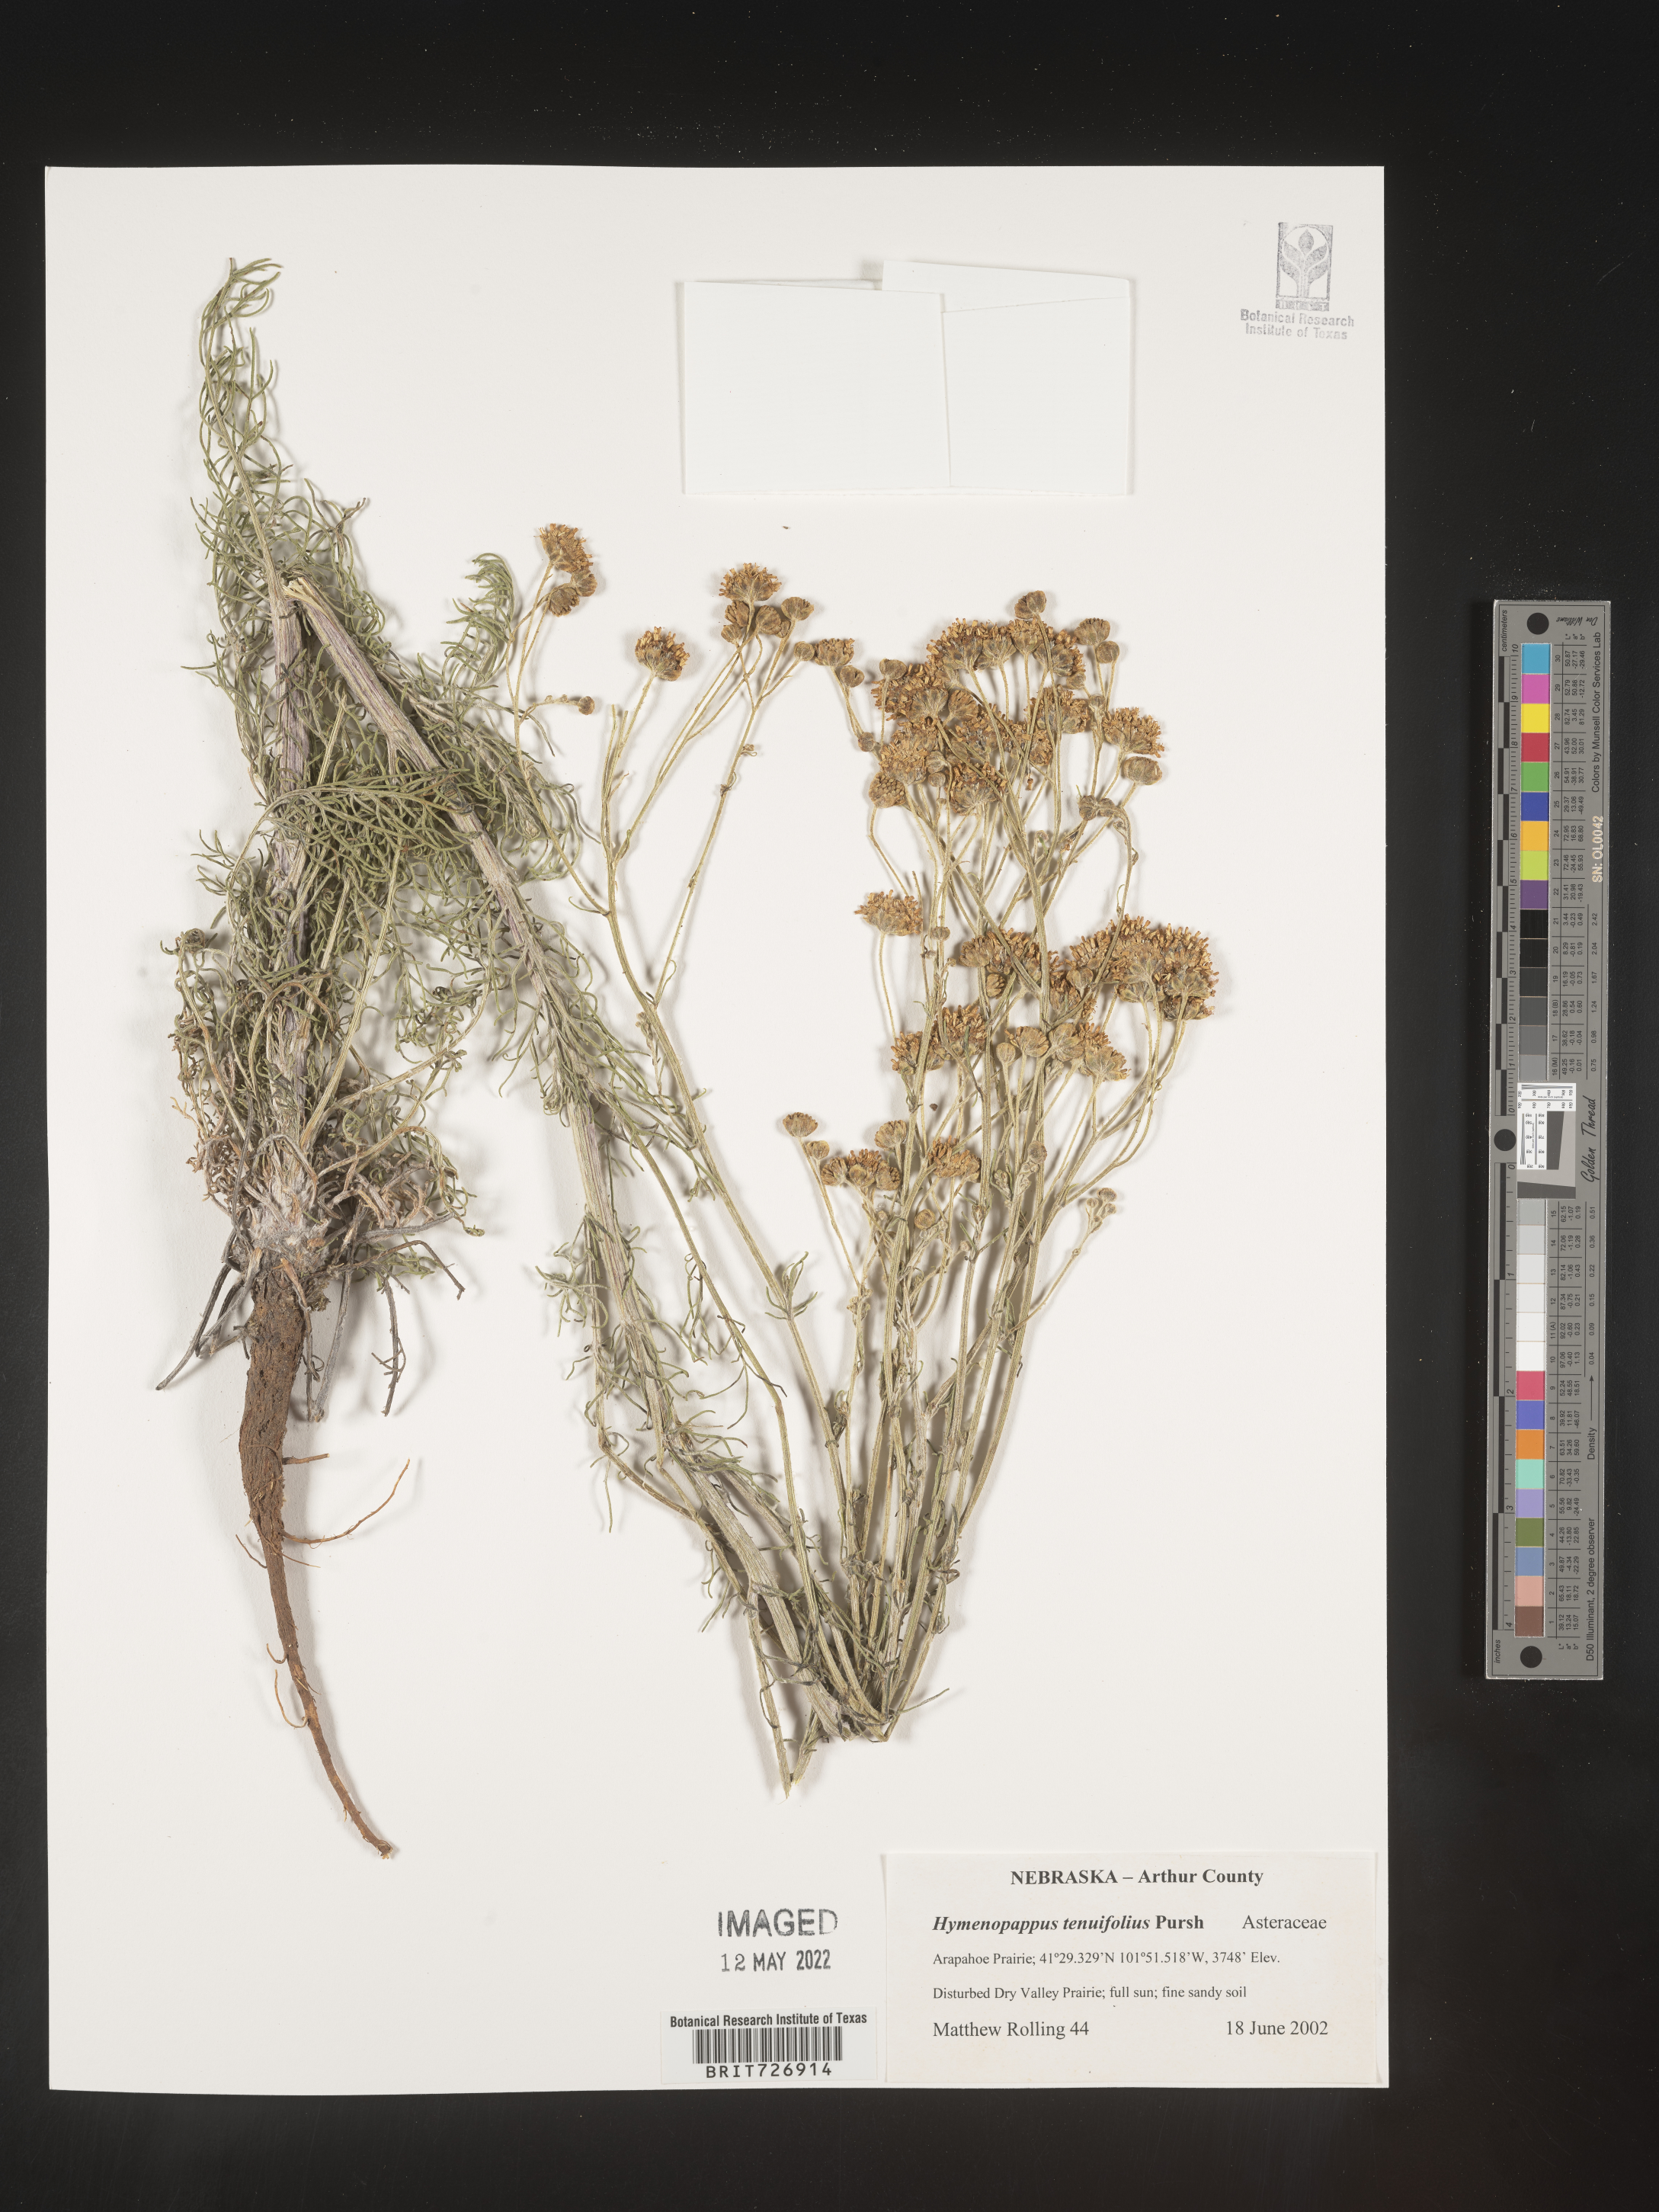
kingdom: Plantae
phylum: Tracheophyta
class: Magnoliopsida
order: Asterales
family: Asteraceae
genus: Hymenopappus
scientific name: Hymenopappus tenuifolius
